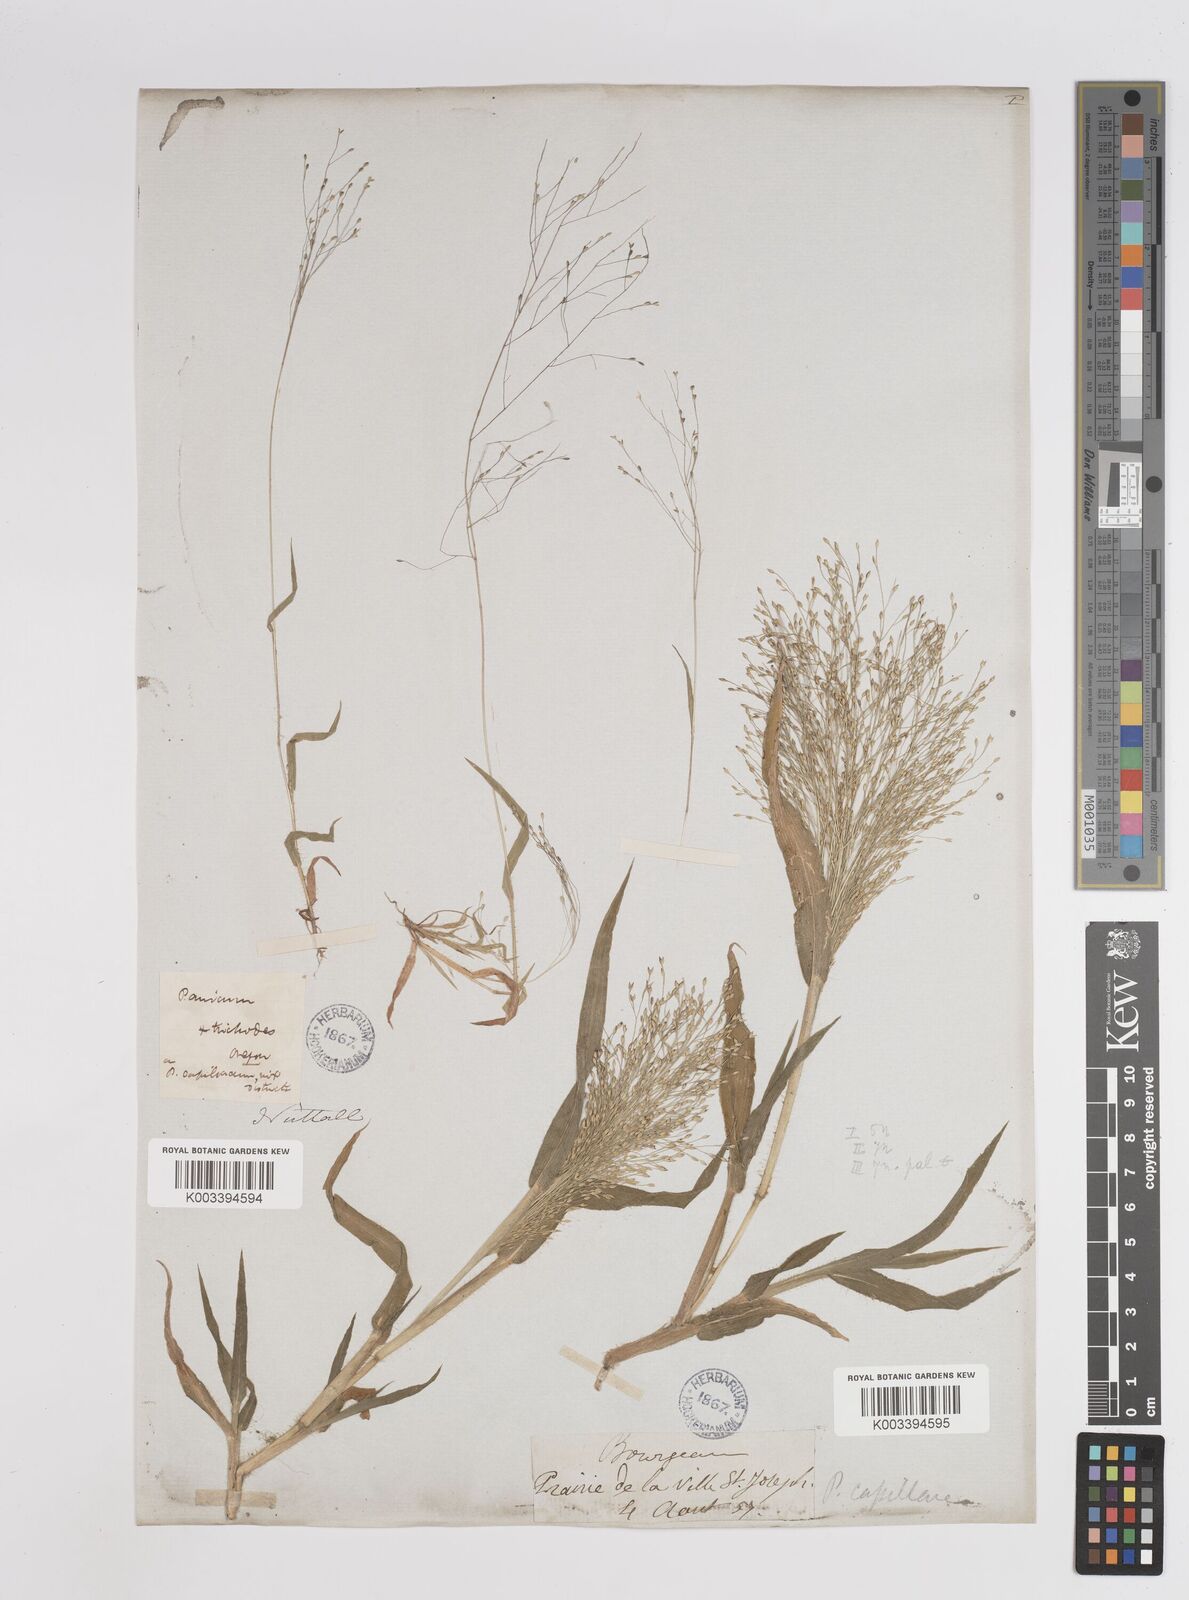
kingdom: Plantae
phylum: Tracheophyta
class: Liliopsida
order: Poales
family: Poaceae
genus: Panicum
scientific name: Panicum capillare
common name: Witch-grass
